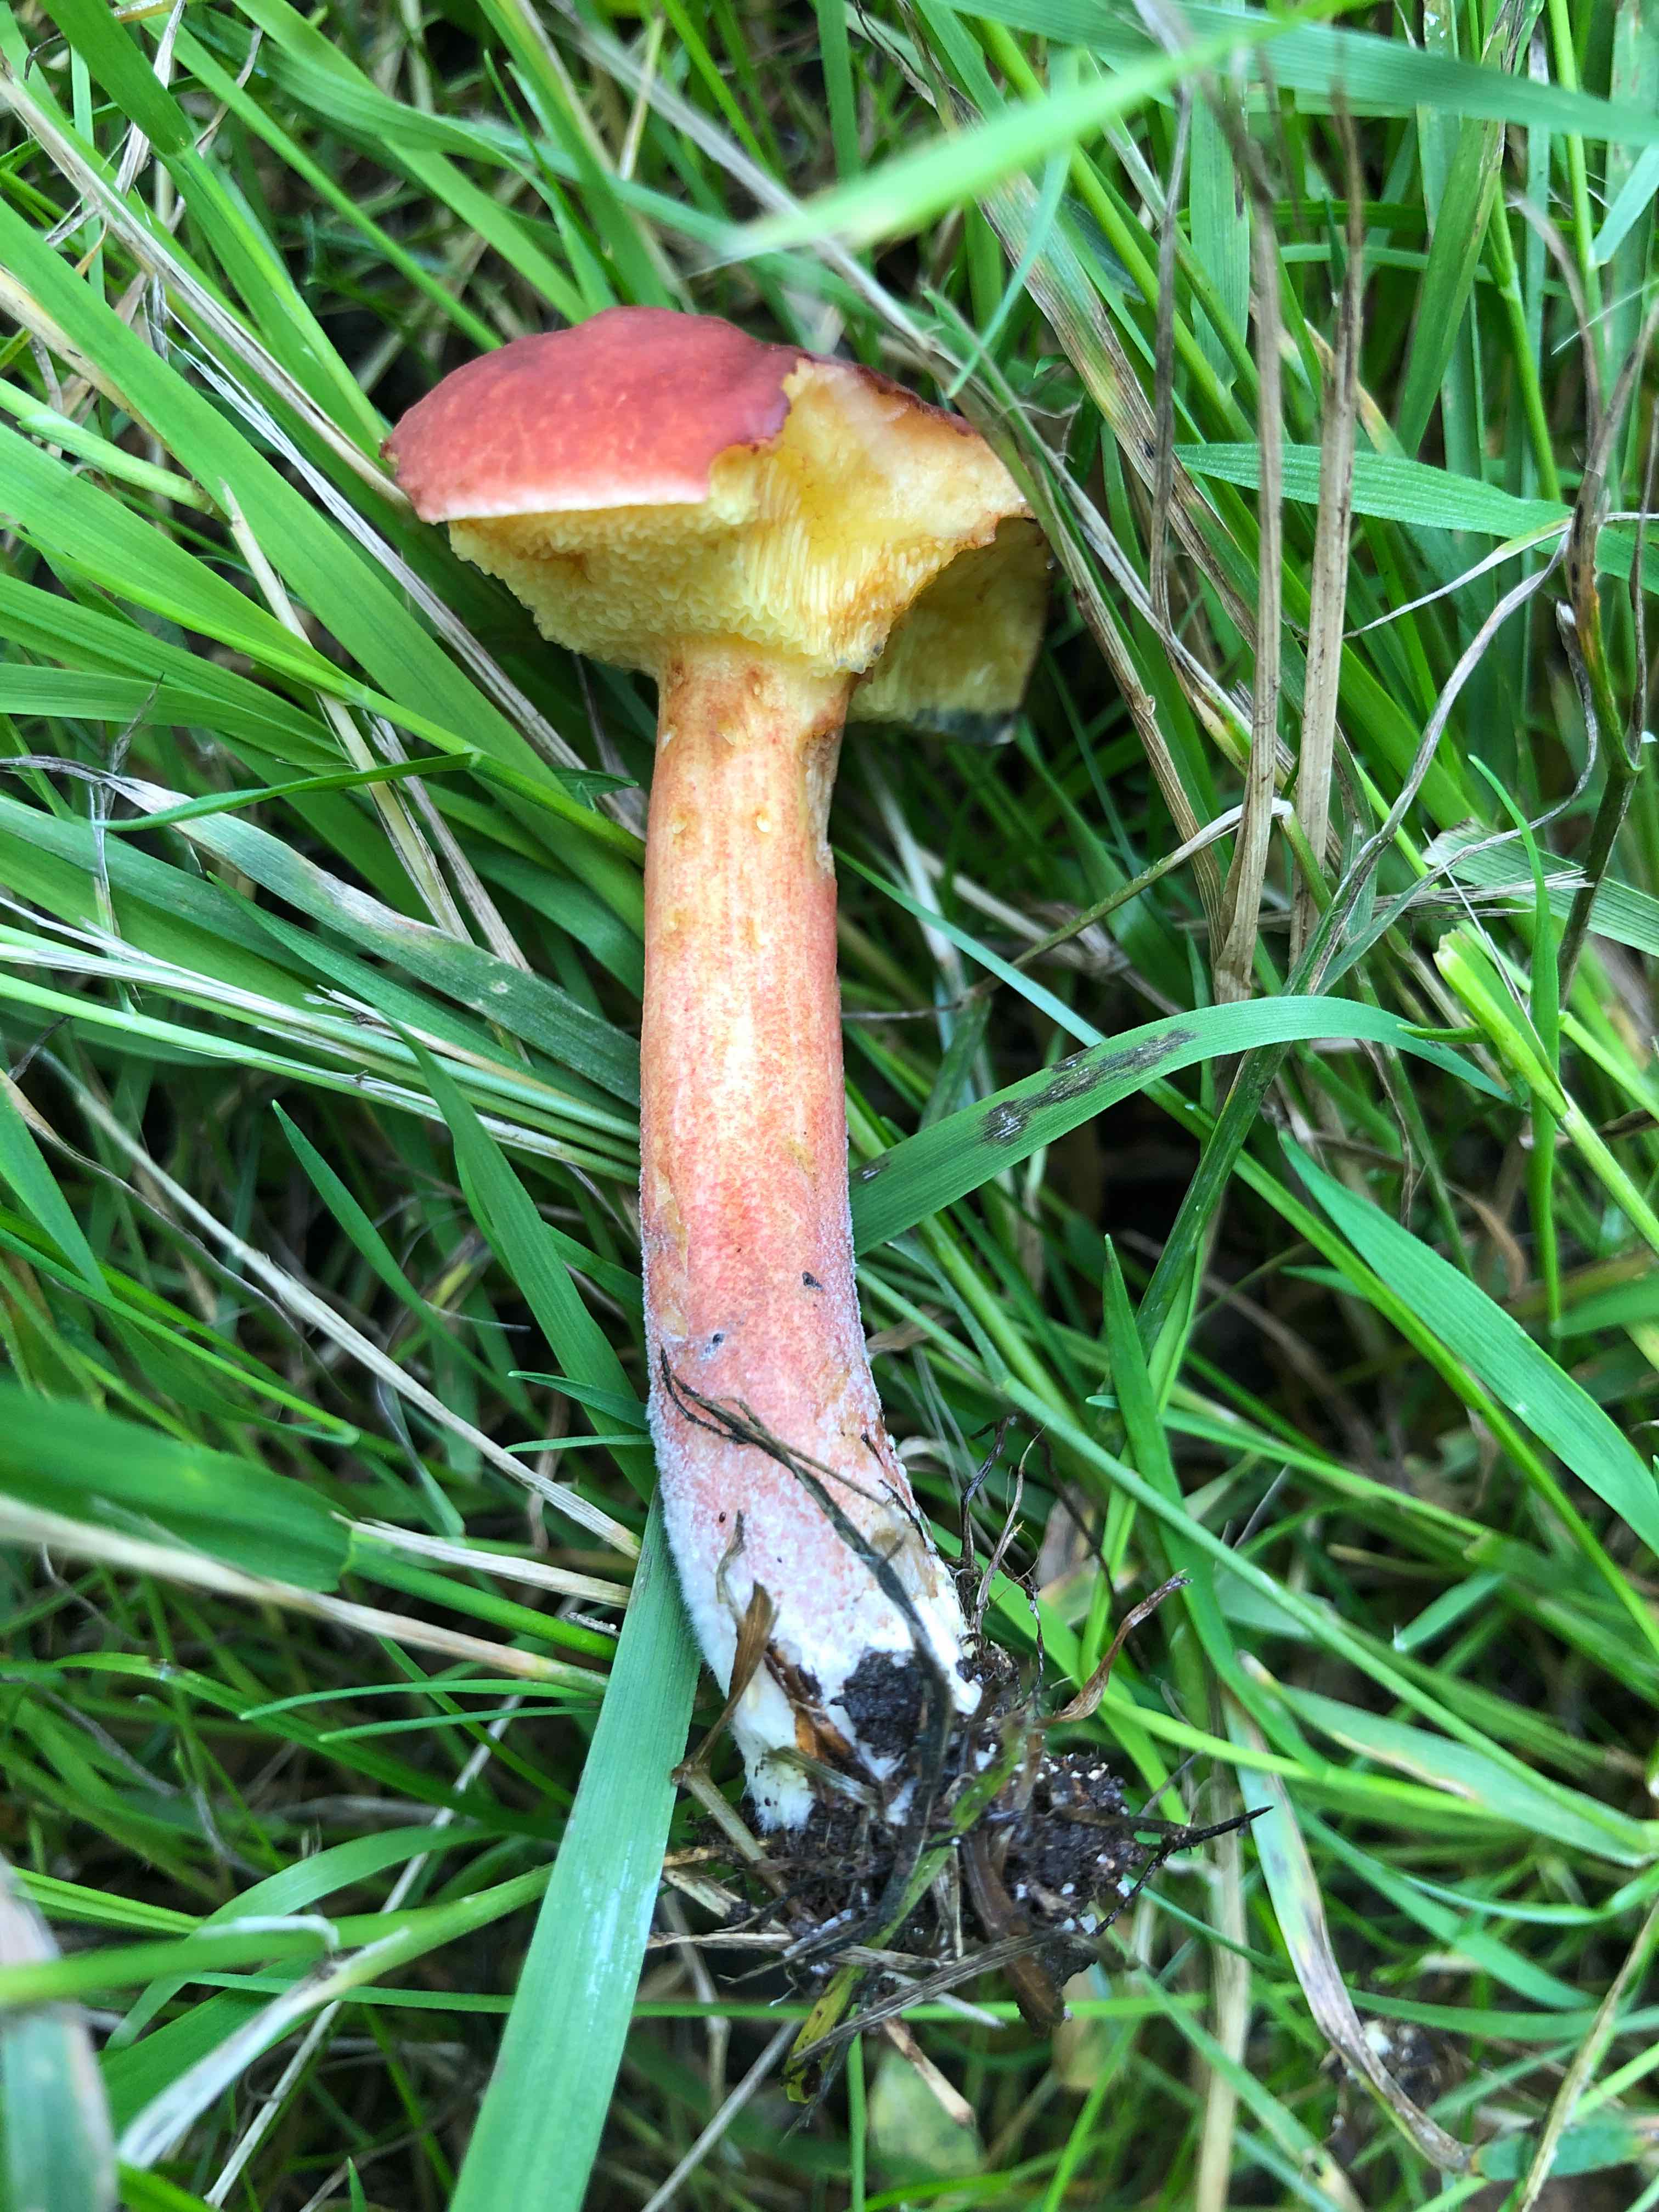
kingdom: Fungi
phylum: Basidiomycota
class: Agaricomycetes
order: Boletales
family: Boletaceae
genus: Xerocomellus
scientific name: Xerocomellus fennicus
